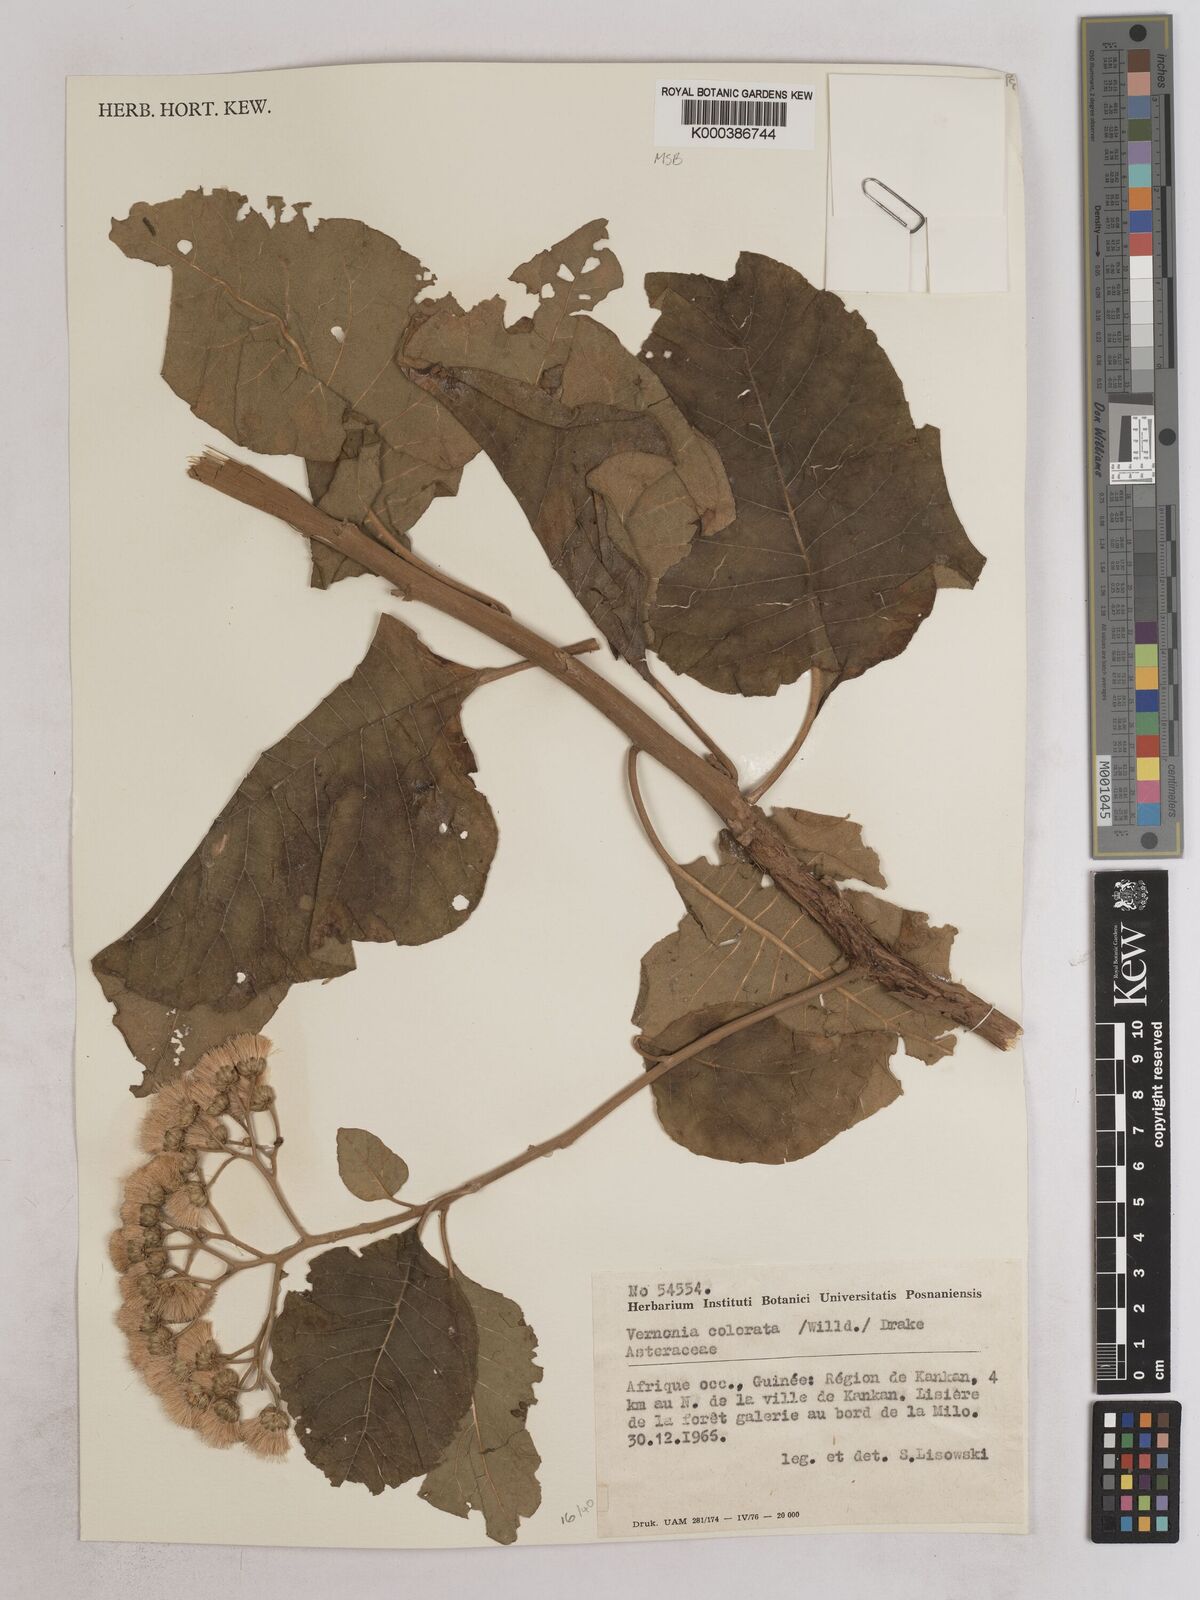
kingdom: Plantae
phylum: Tracheophyta
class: Magnoliopsida
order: Asterales
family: Asteraceae
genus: Vernonia
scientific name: Vernonia colorata
